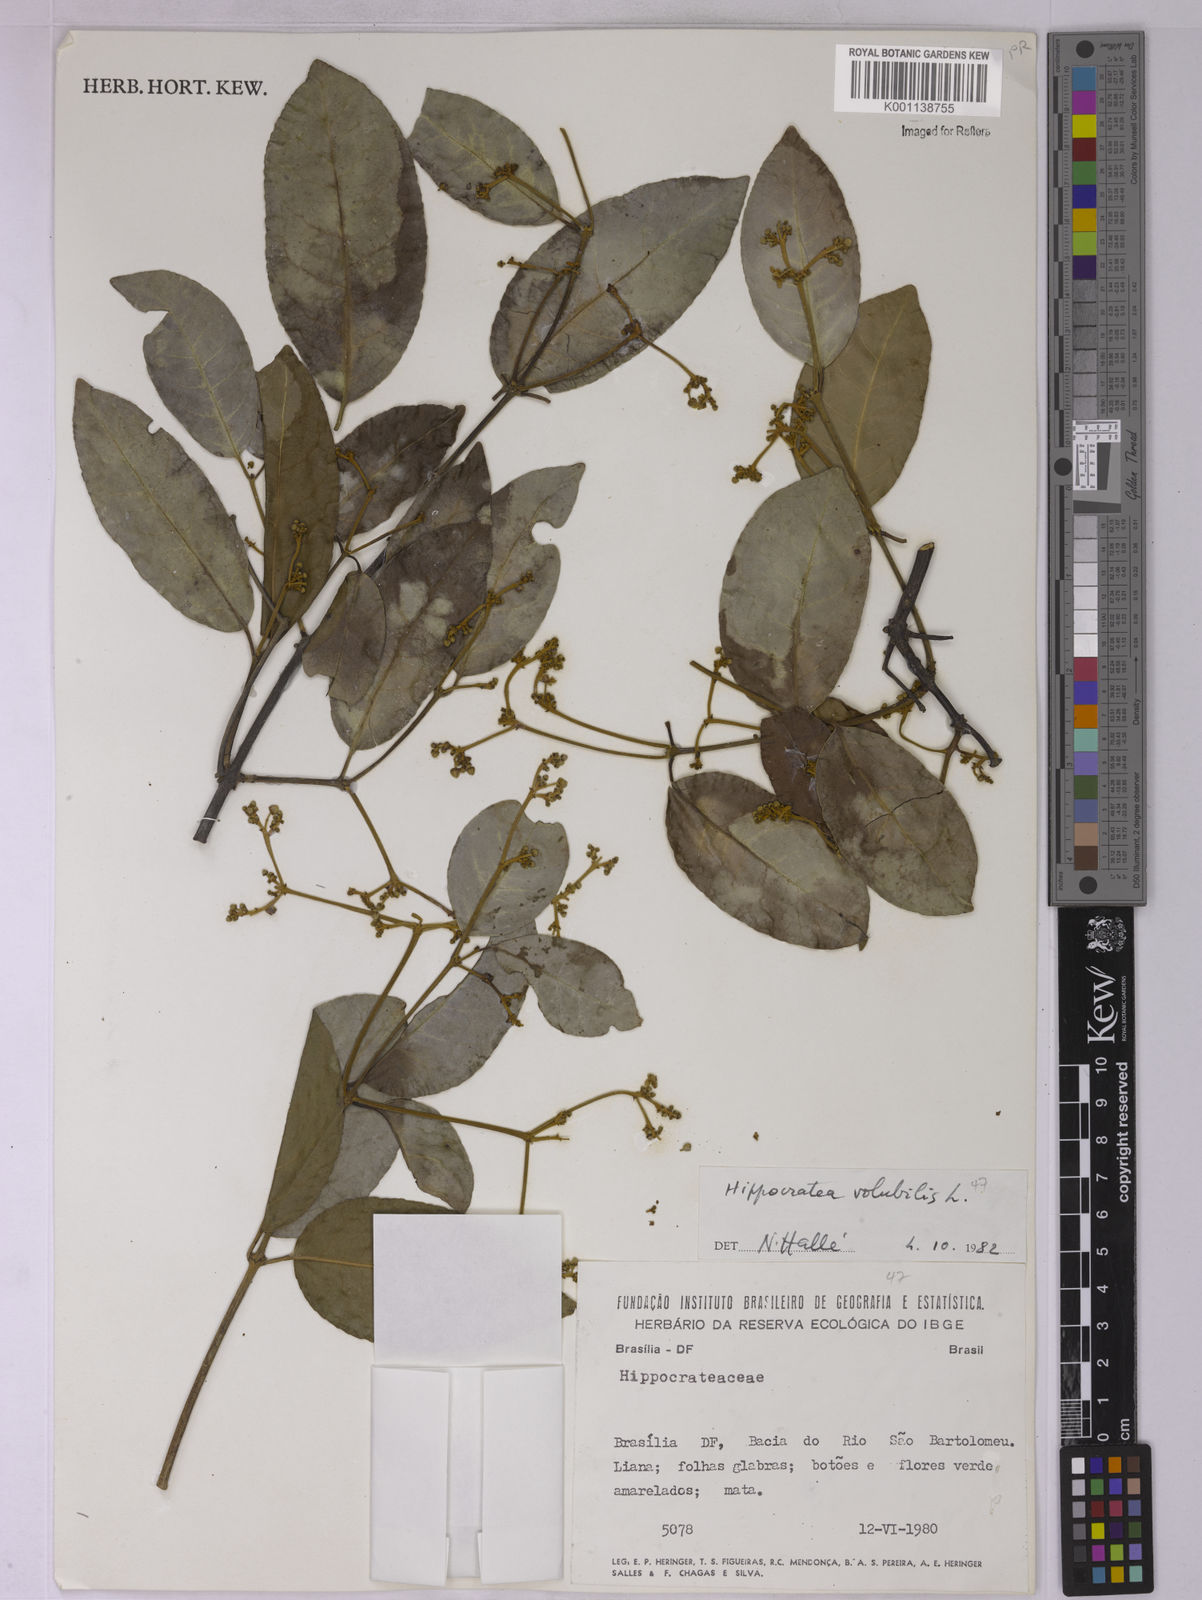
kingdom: Plantae
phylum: Tracheophyta
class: Magnoliopsida
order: Celastrales
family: Celastraceae
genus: Hippocratea
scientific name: Hippocratea volubilis
